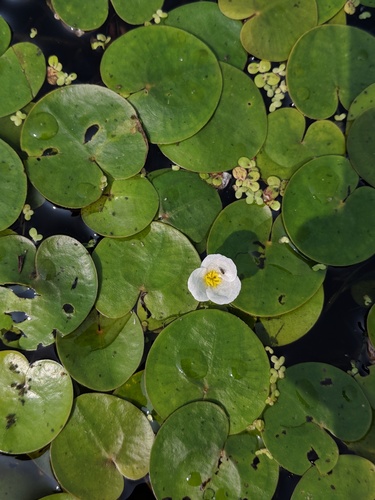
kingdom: Plantae
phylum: Tracheophyta
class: Liliopsida
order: Alismatales
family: Hydrocharitaceae
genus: Hydrocharis
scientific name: Hydrocharis morsus-ranae
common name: European frog-bit
